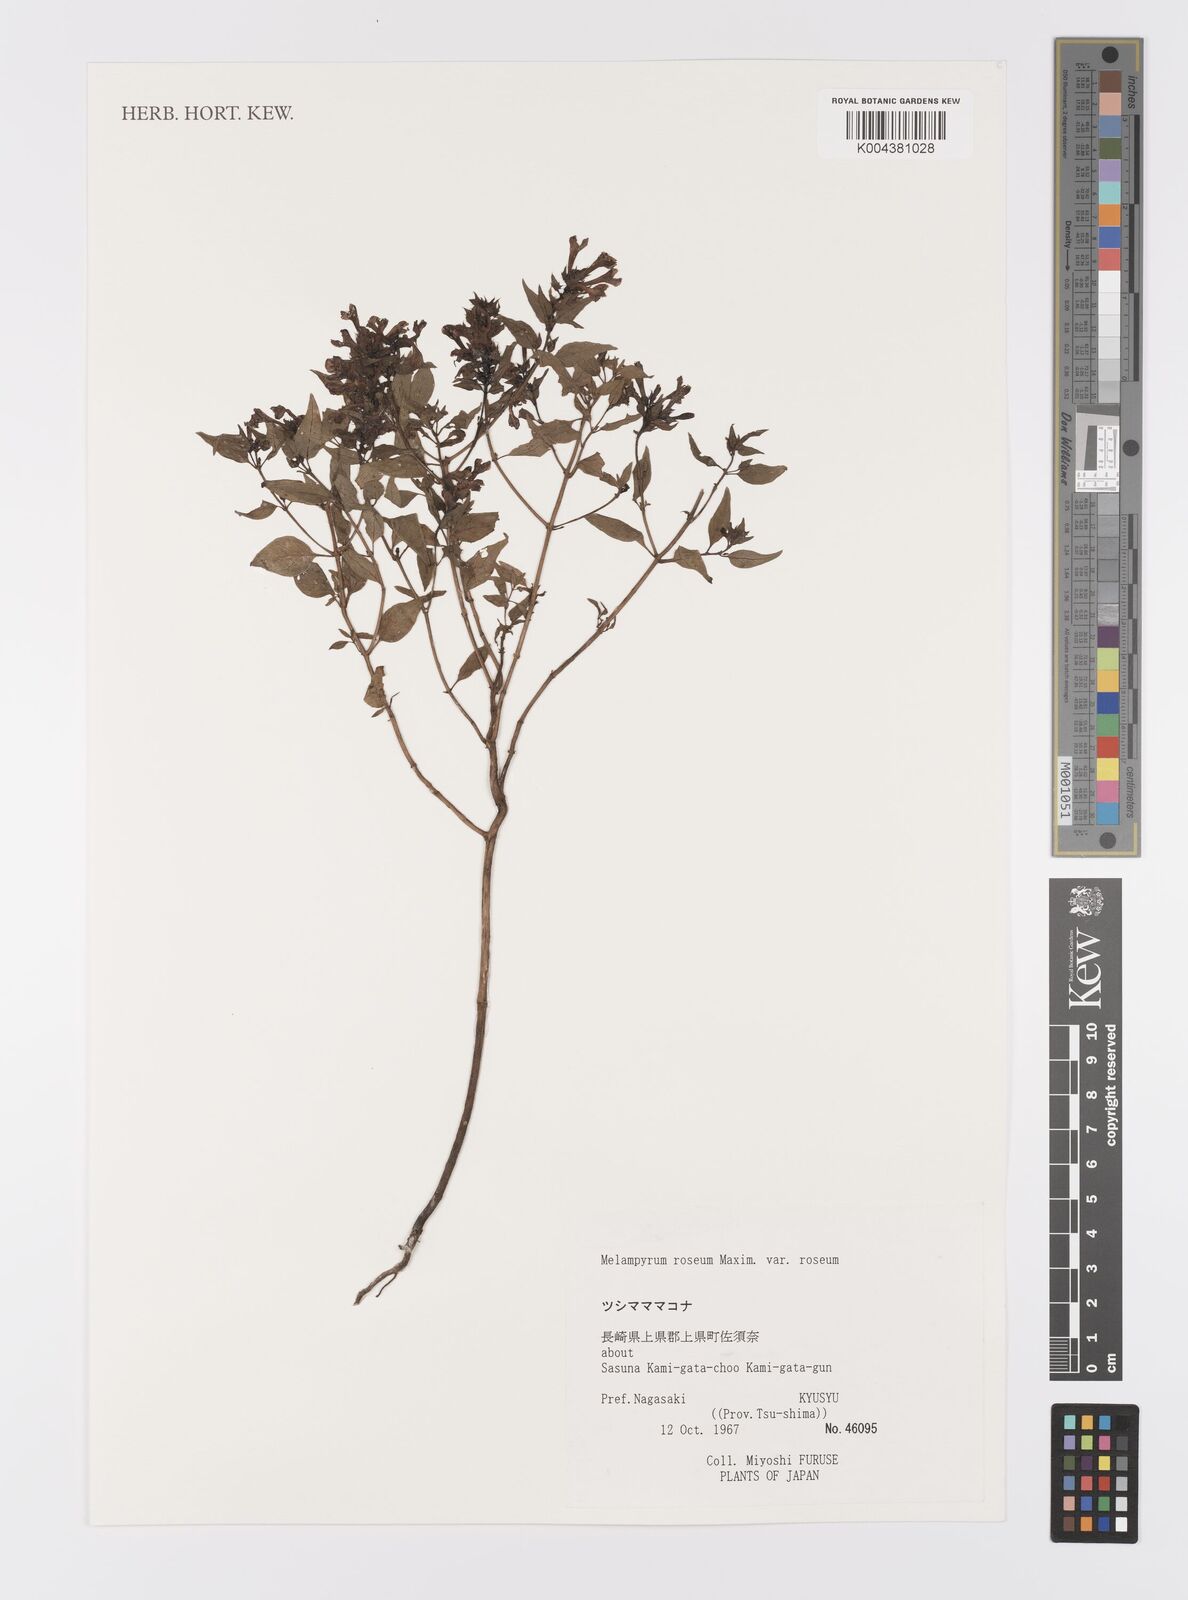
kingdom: Plantae
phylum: Tracheophyta
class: Magnoliopsida
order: Lamiales
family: Orobanchaceae
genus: Melampyrum
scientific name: Melampyrum roseum
